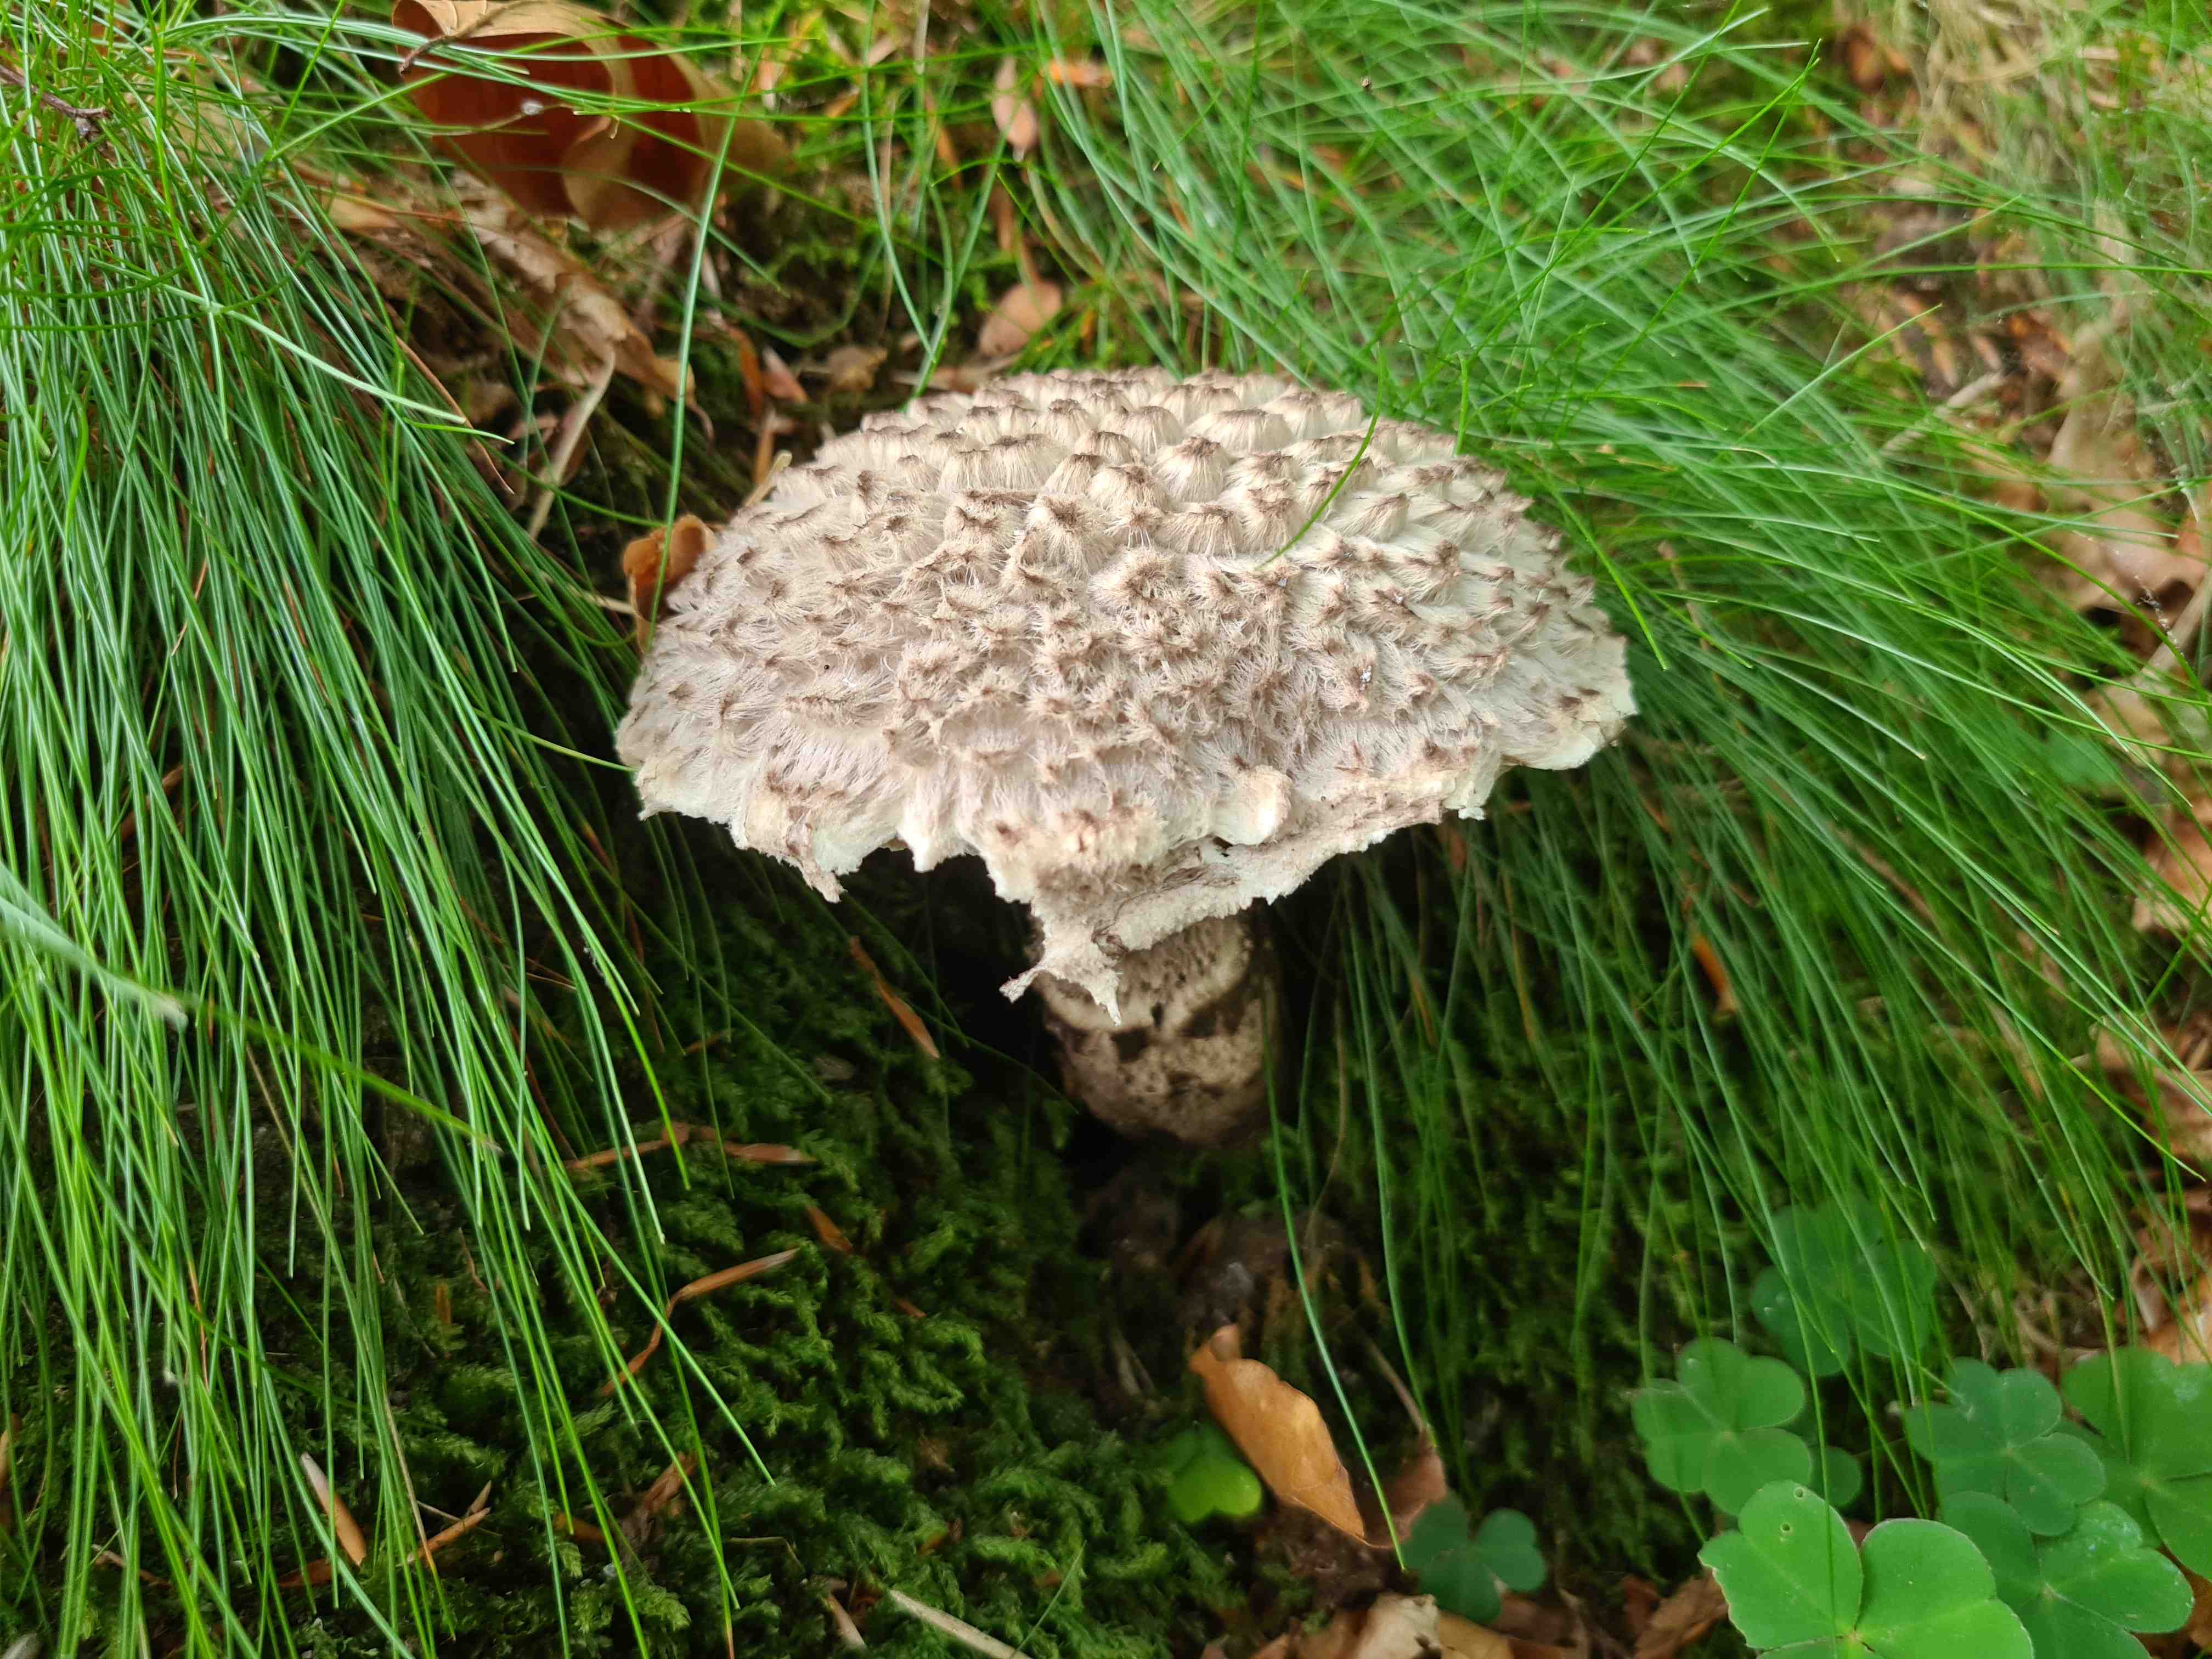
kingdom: Fungi
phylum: Basidiomycota
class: Agaricomycetes
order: Boletales
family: Boletaceae
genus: Strobilomyces
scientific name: Strobilomyces strobilaceus
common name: koglerørhat
